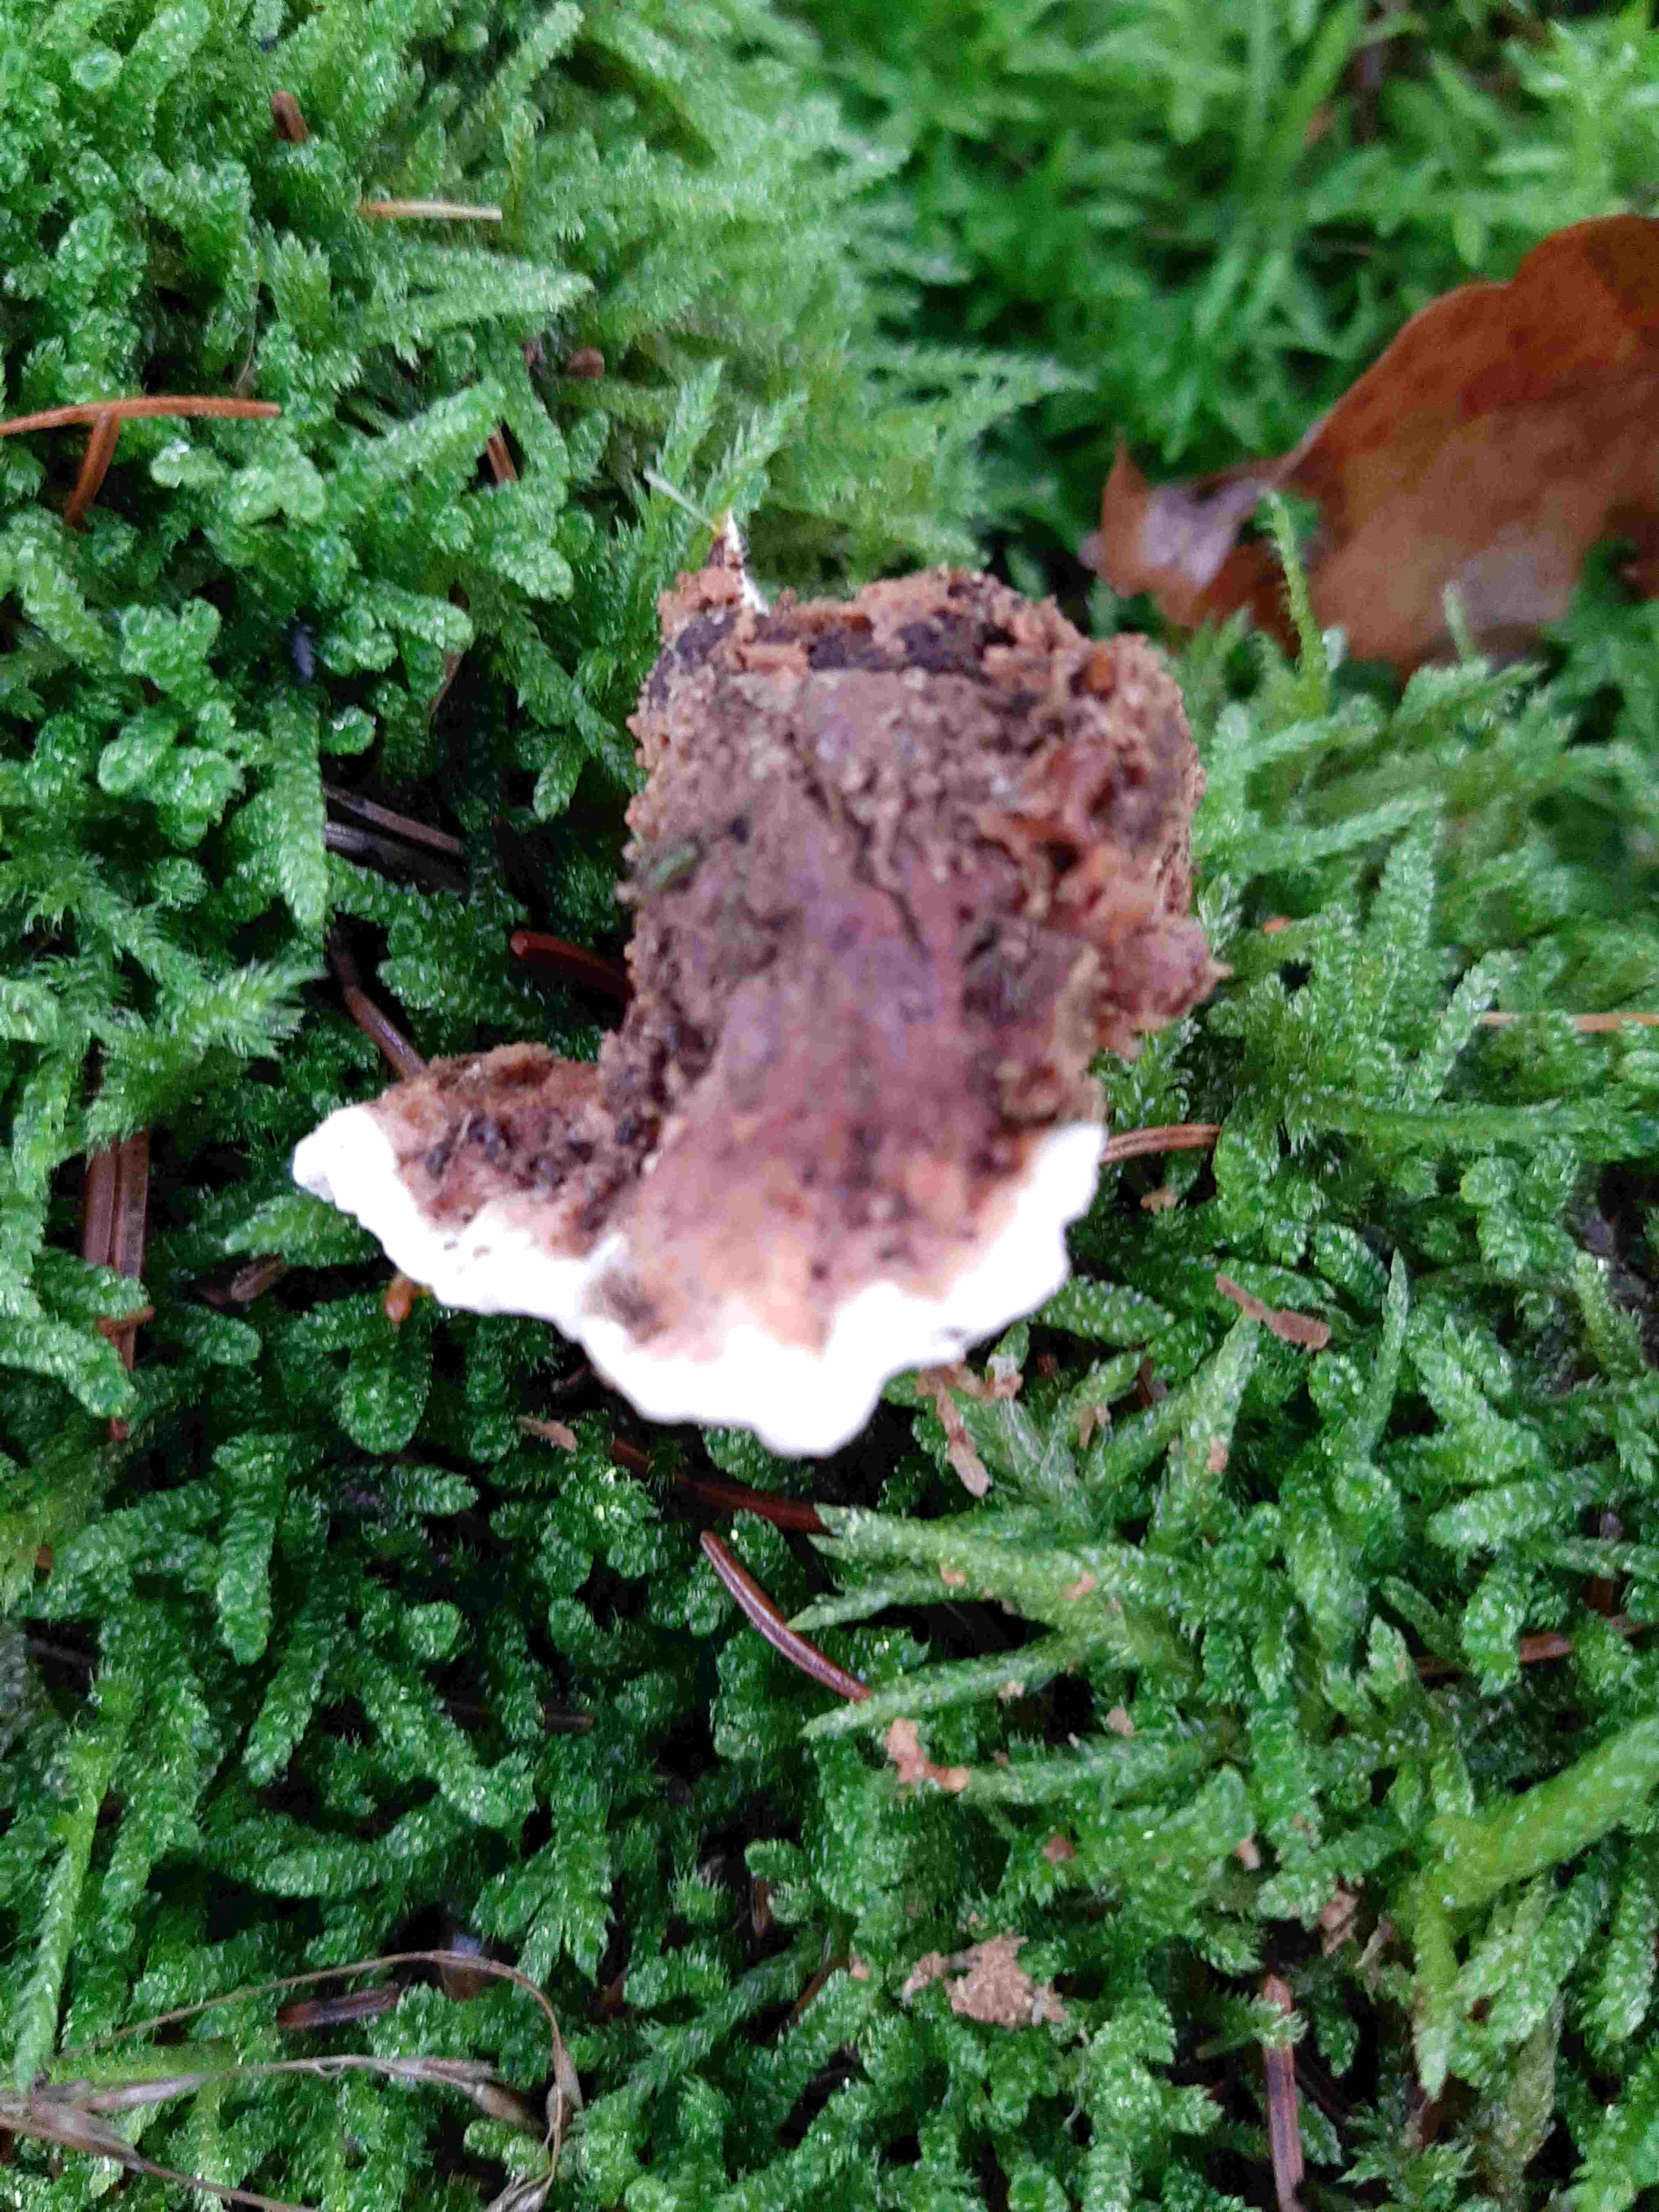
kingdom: Fungi
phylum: Basidiomycota
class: Agaricomycetes
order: Russulales
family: Bondarzewiaceae
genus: Heterobasidion
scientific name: Heterobasidion annosum
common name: almindelig rodfordærver
